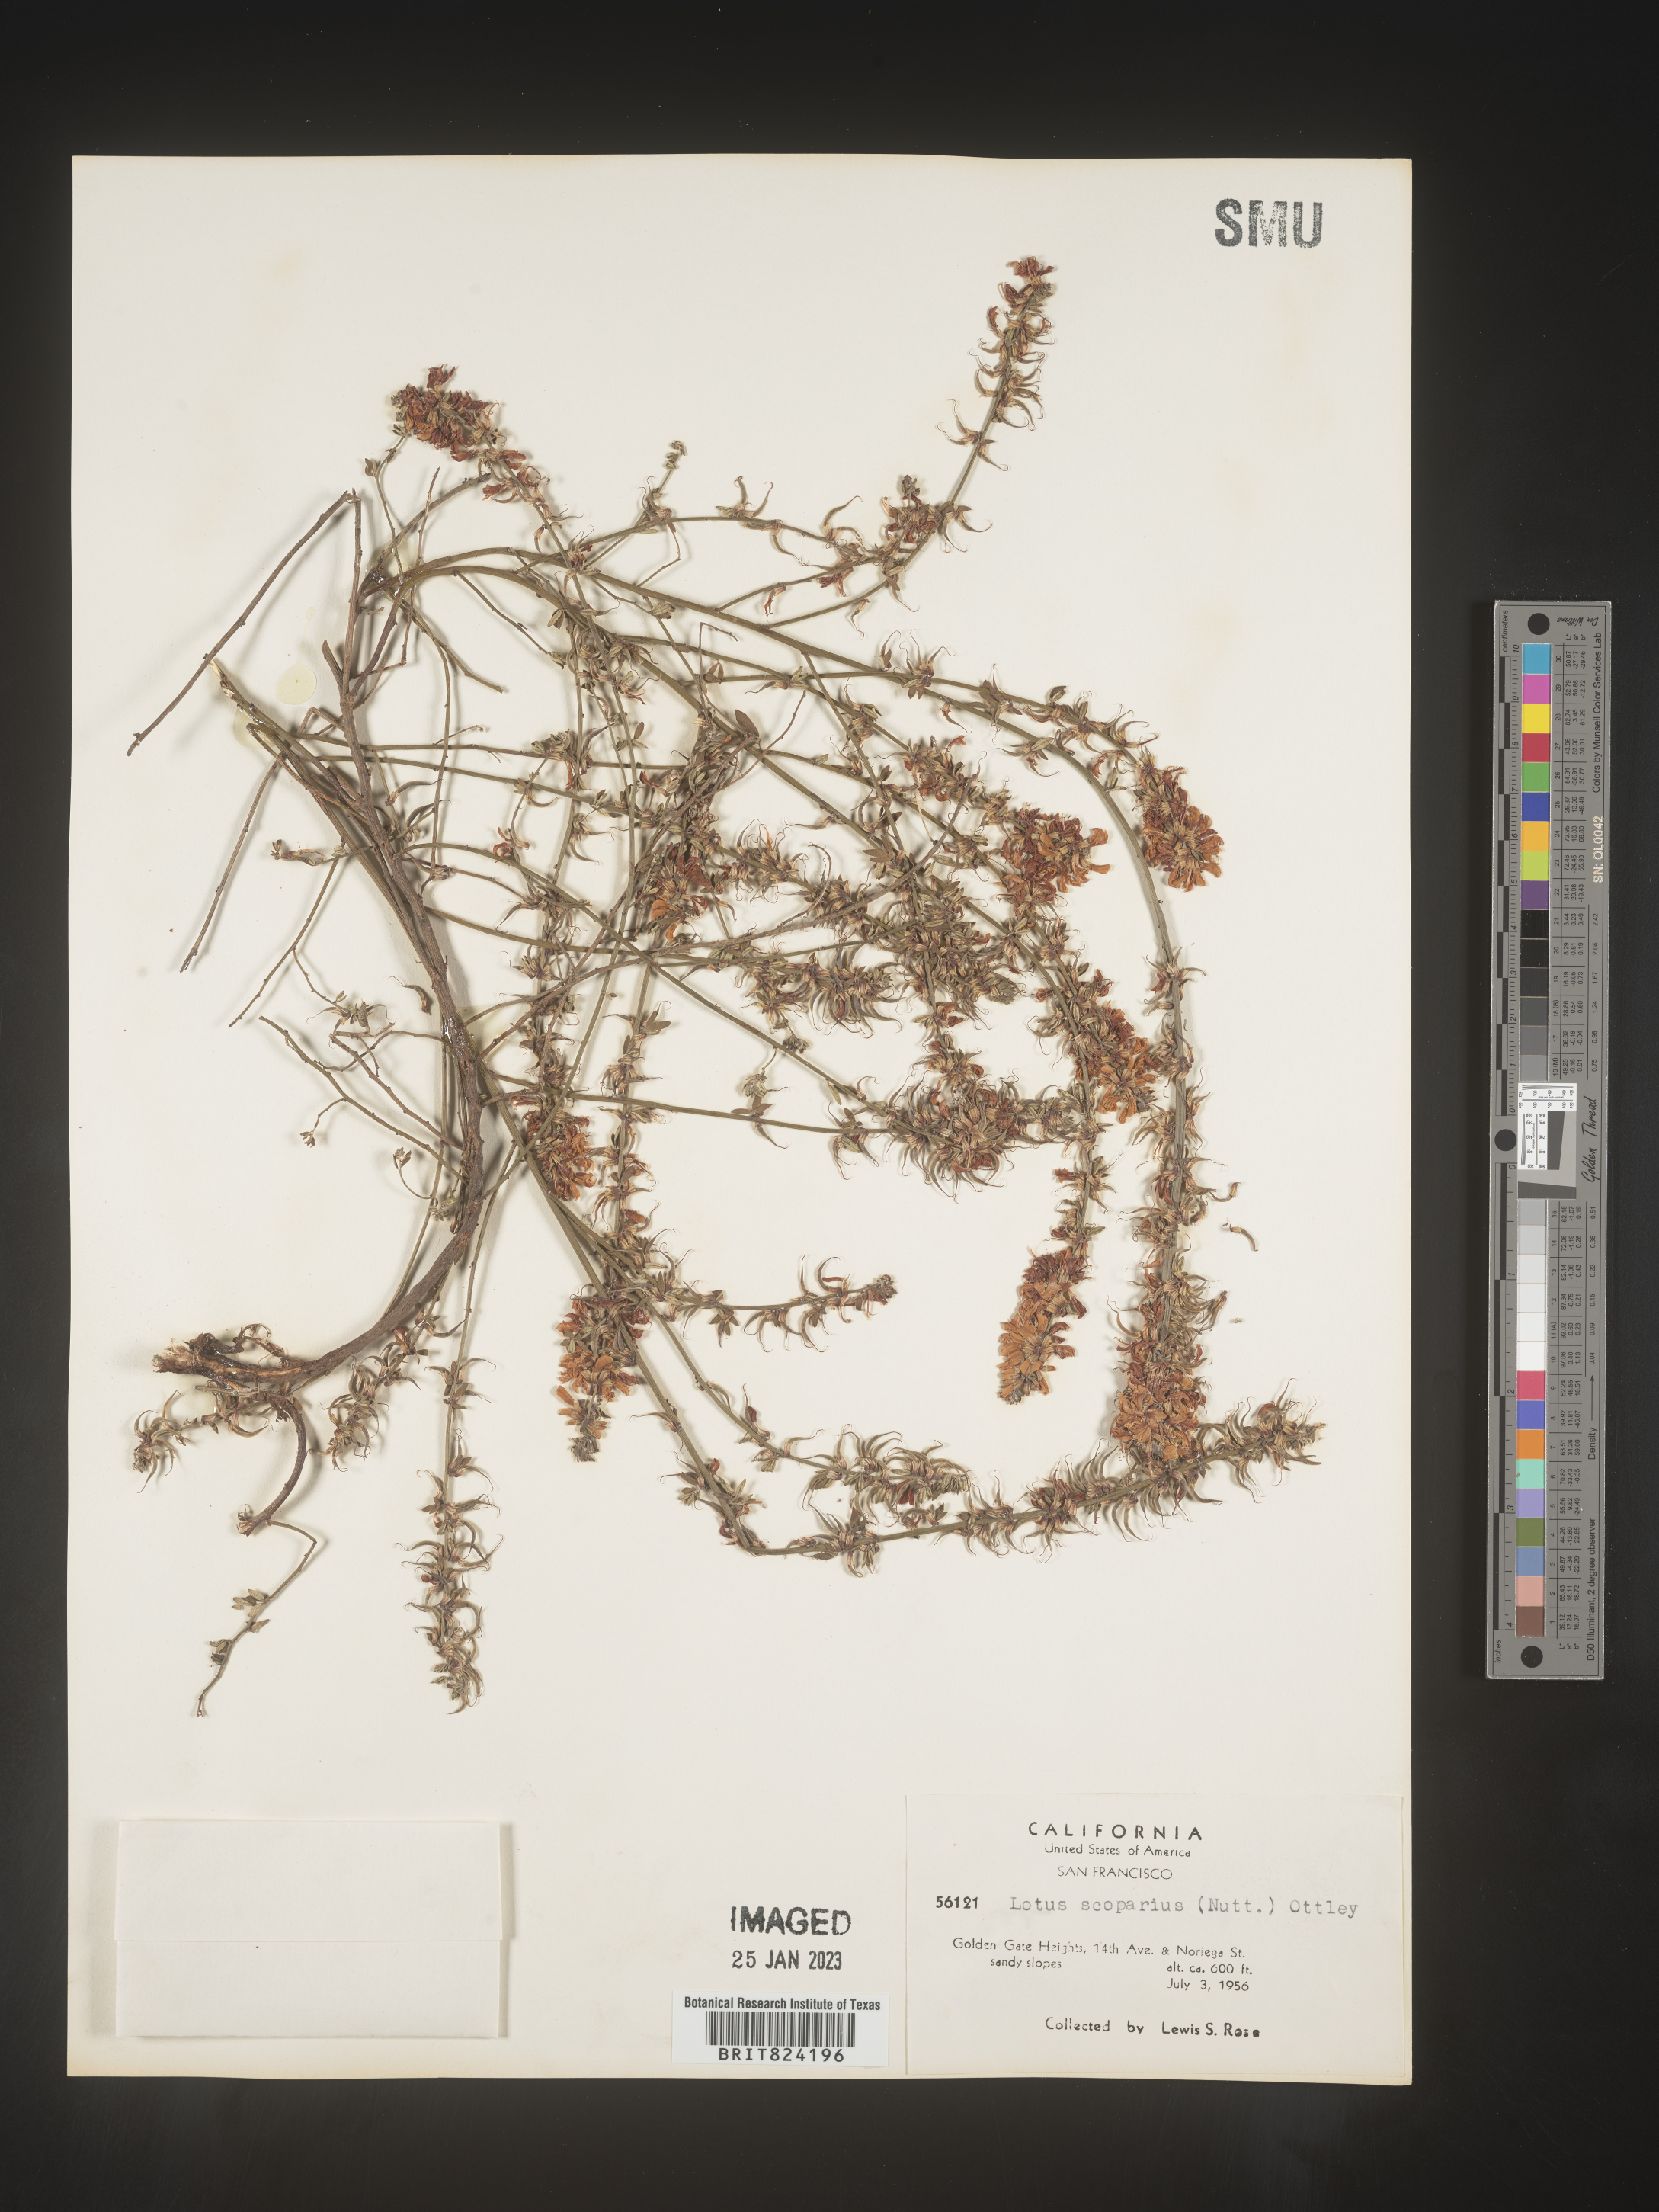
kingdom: Plantae
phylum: Tracheophyta
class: Magnoliopsida
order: Fabales
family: Fabaceae
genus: Lotus
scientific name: Lotus
